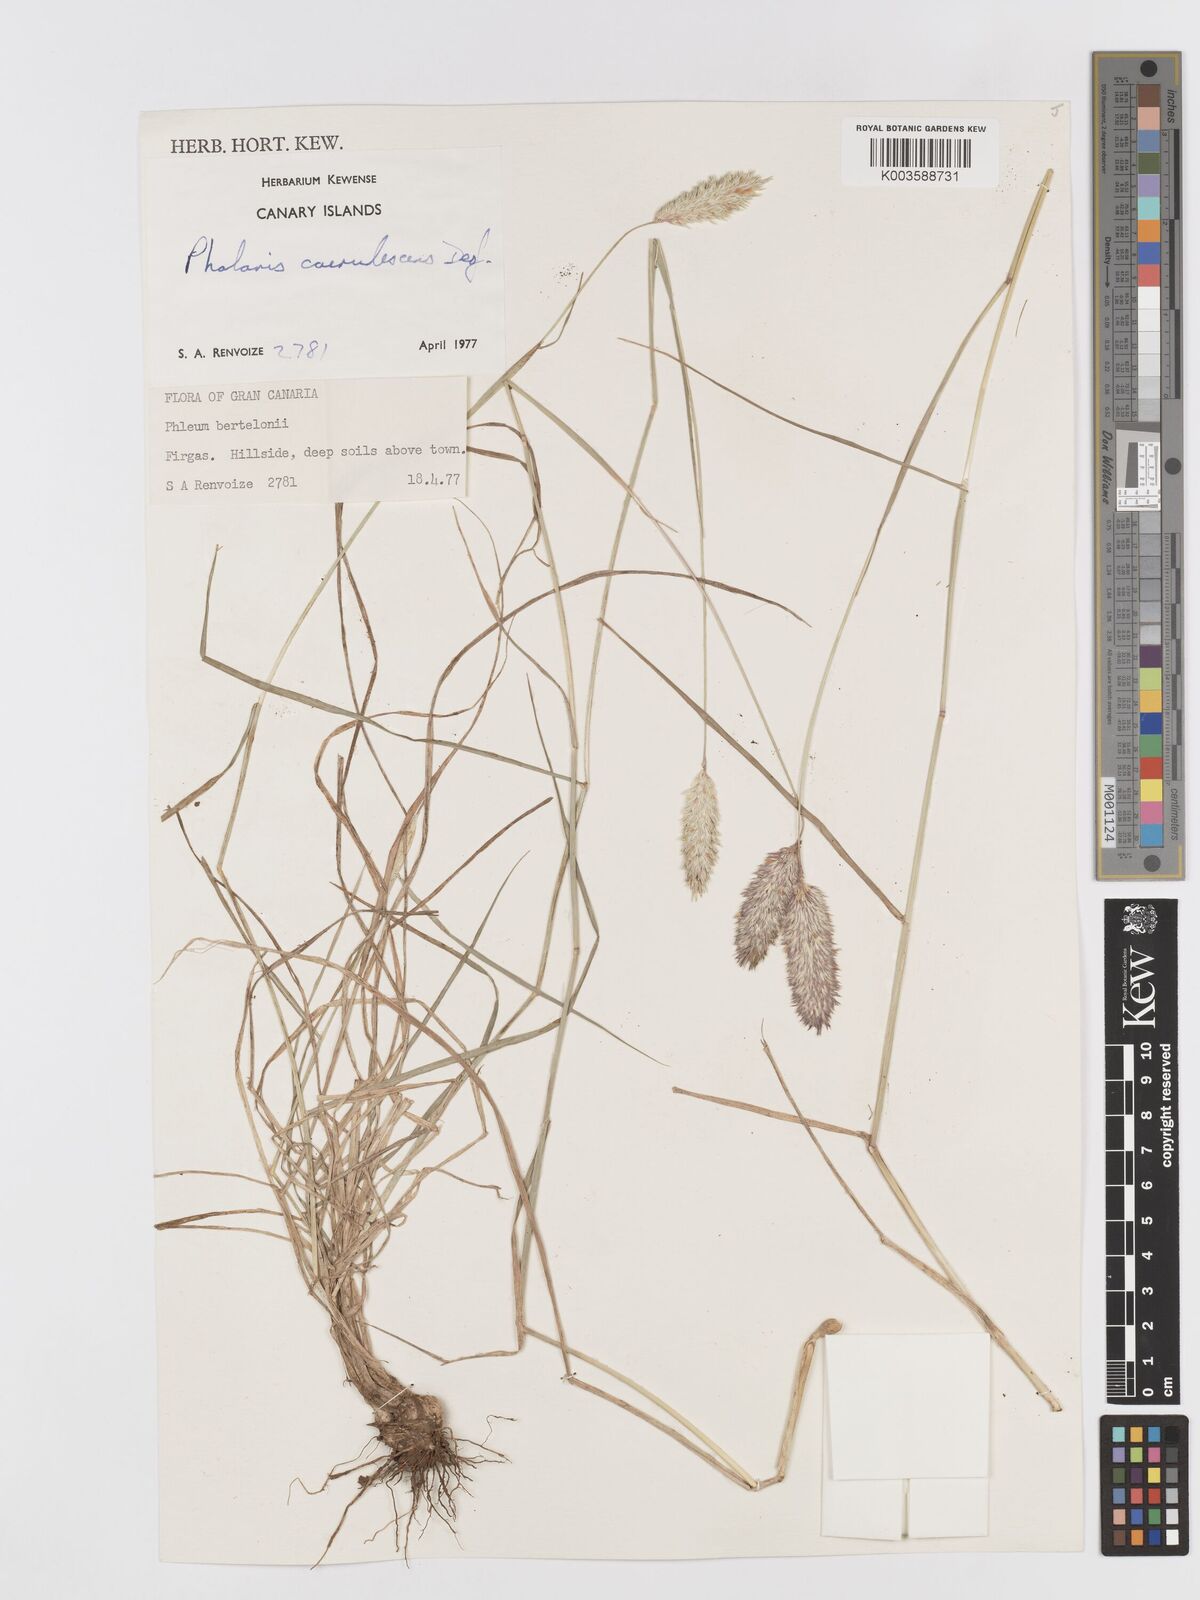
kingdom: Plantae
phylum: Tracheophyta
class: Liliopsida
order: Poales
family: Poaceae
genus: Phalaris
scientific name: Phalaris coerulescens
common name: Sunolgrass
